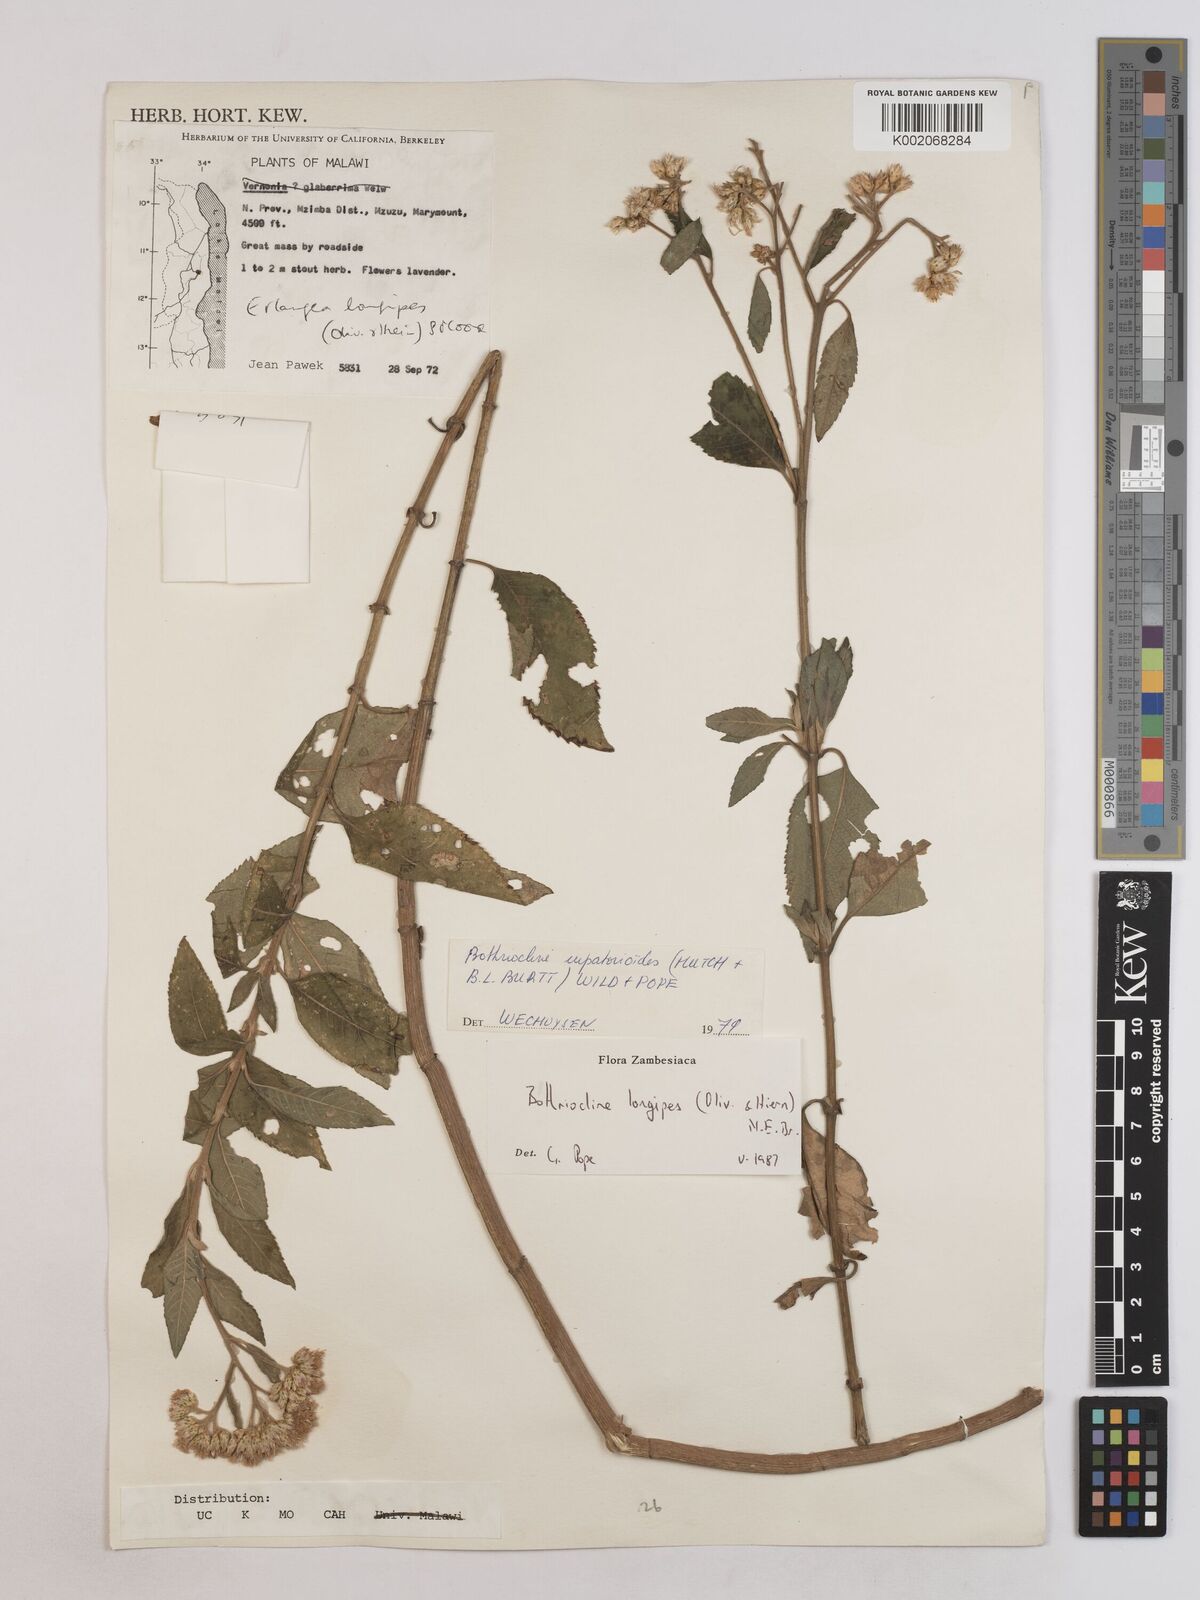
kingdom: Plantae
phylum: Tracheophyta
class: Magnoliopsida
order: Asterales
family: Asteraceae
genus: Bothriocline
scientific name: Bothriocline longipes
